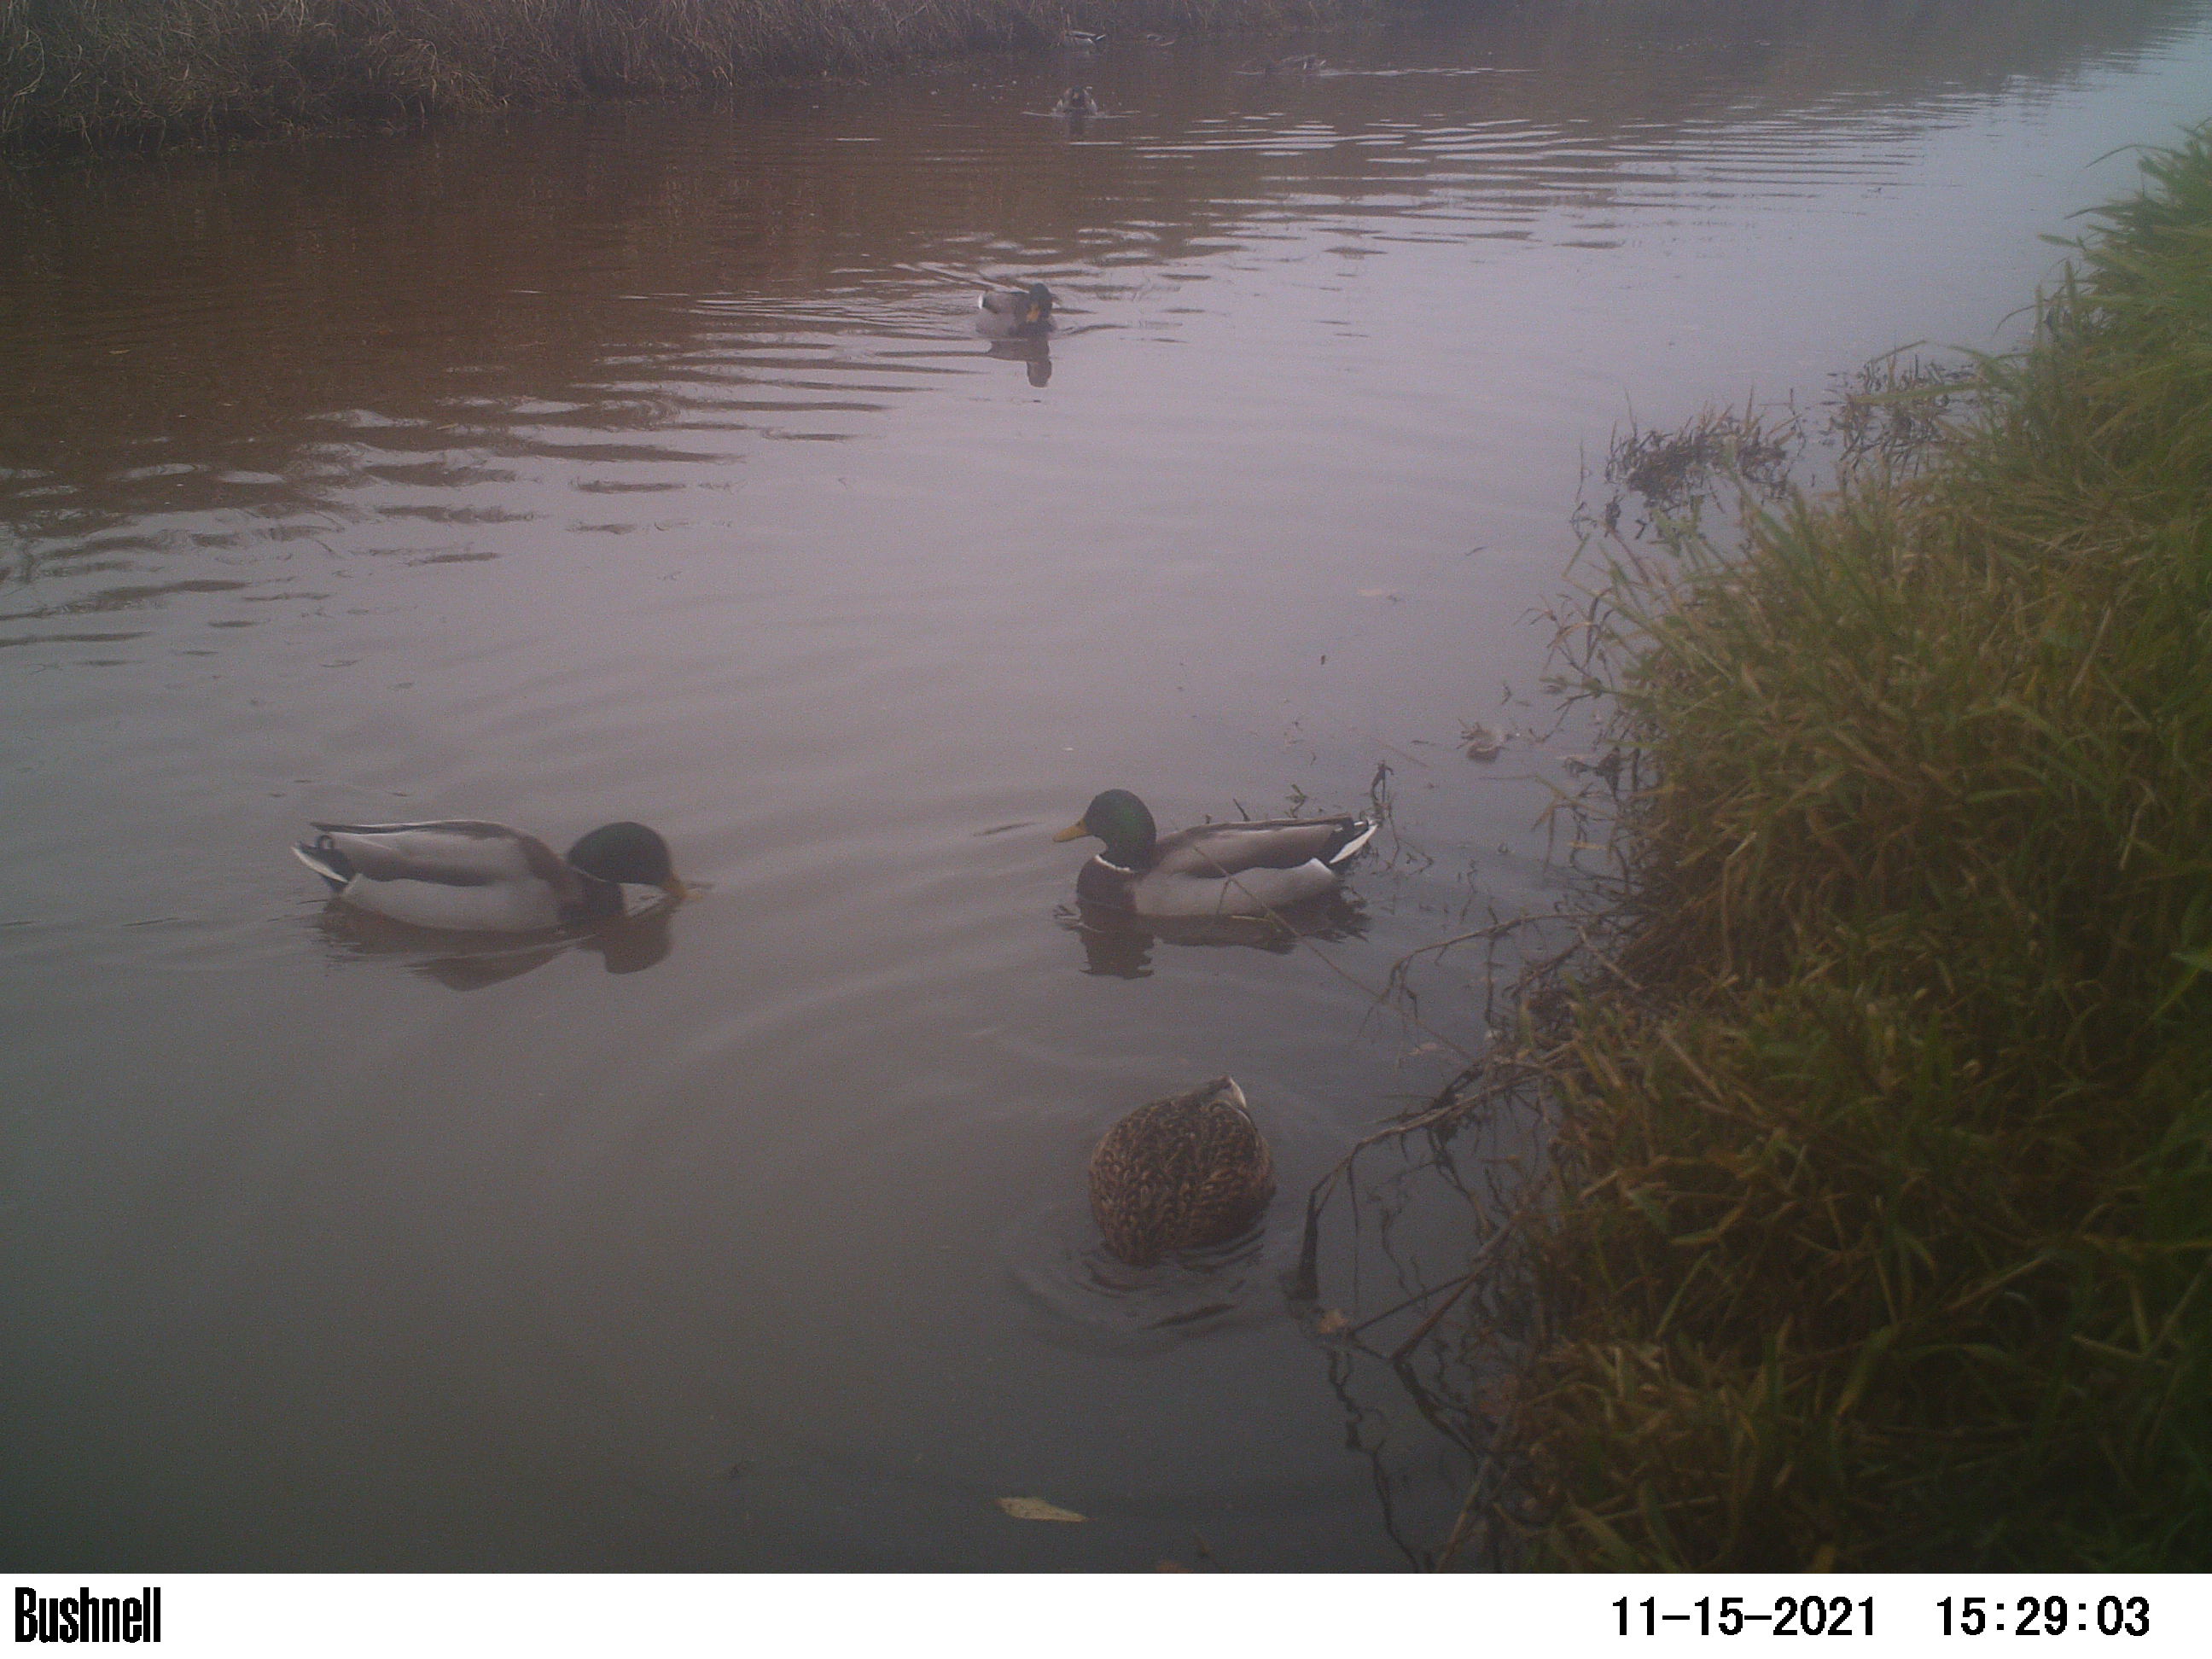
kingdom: Animalia
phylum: Chordata
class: Aves
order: Anseriformes
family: Anatidae
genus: Anas
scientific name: Anas
